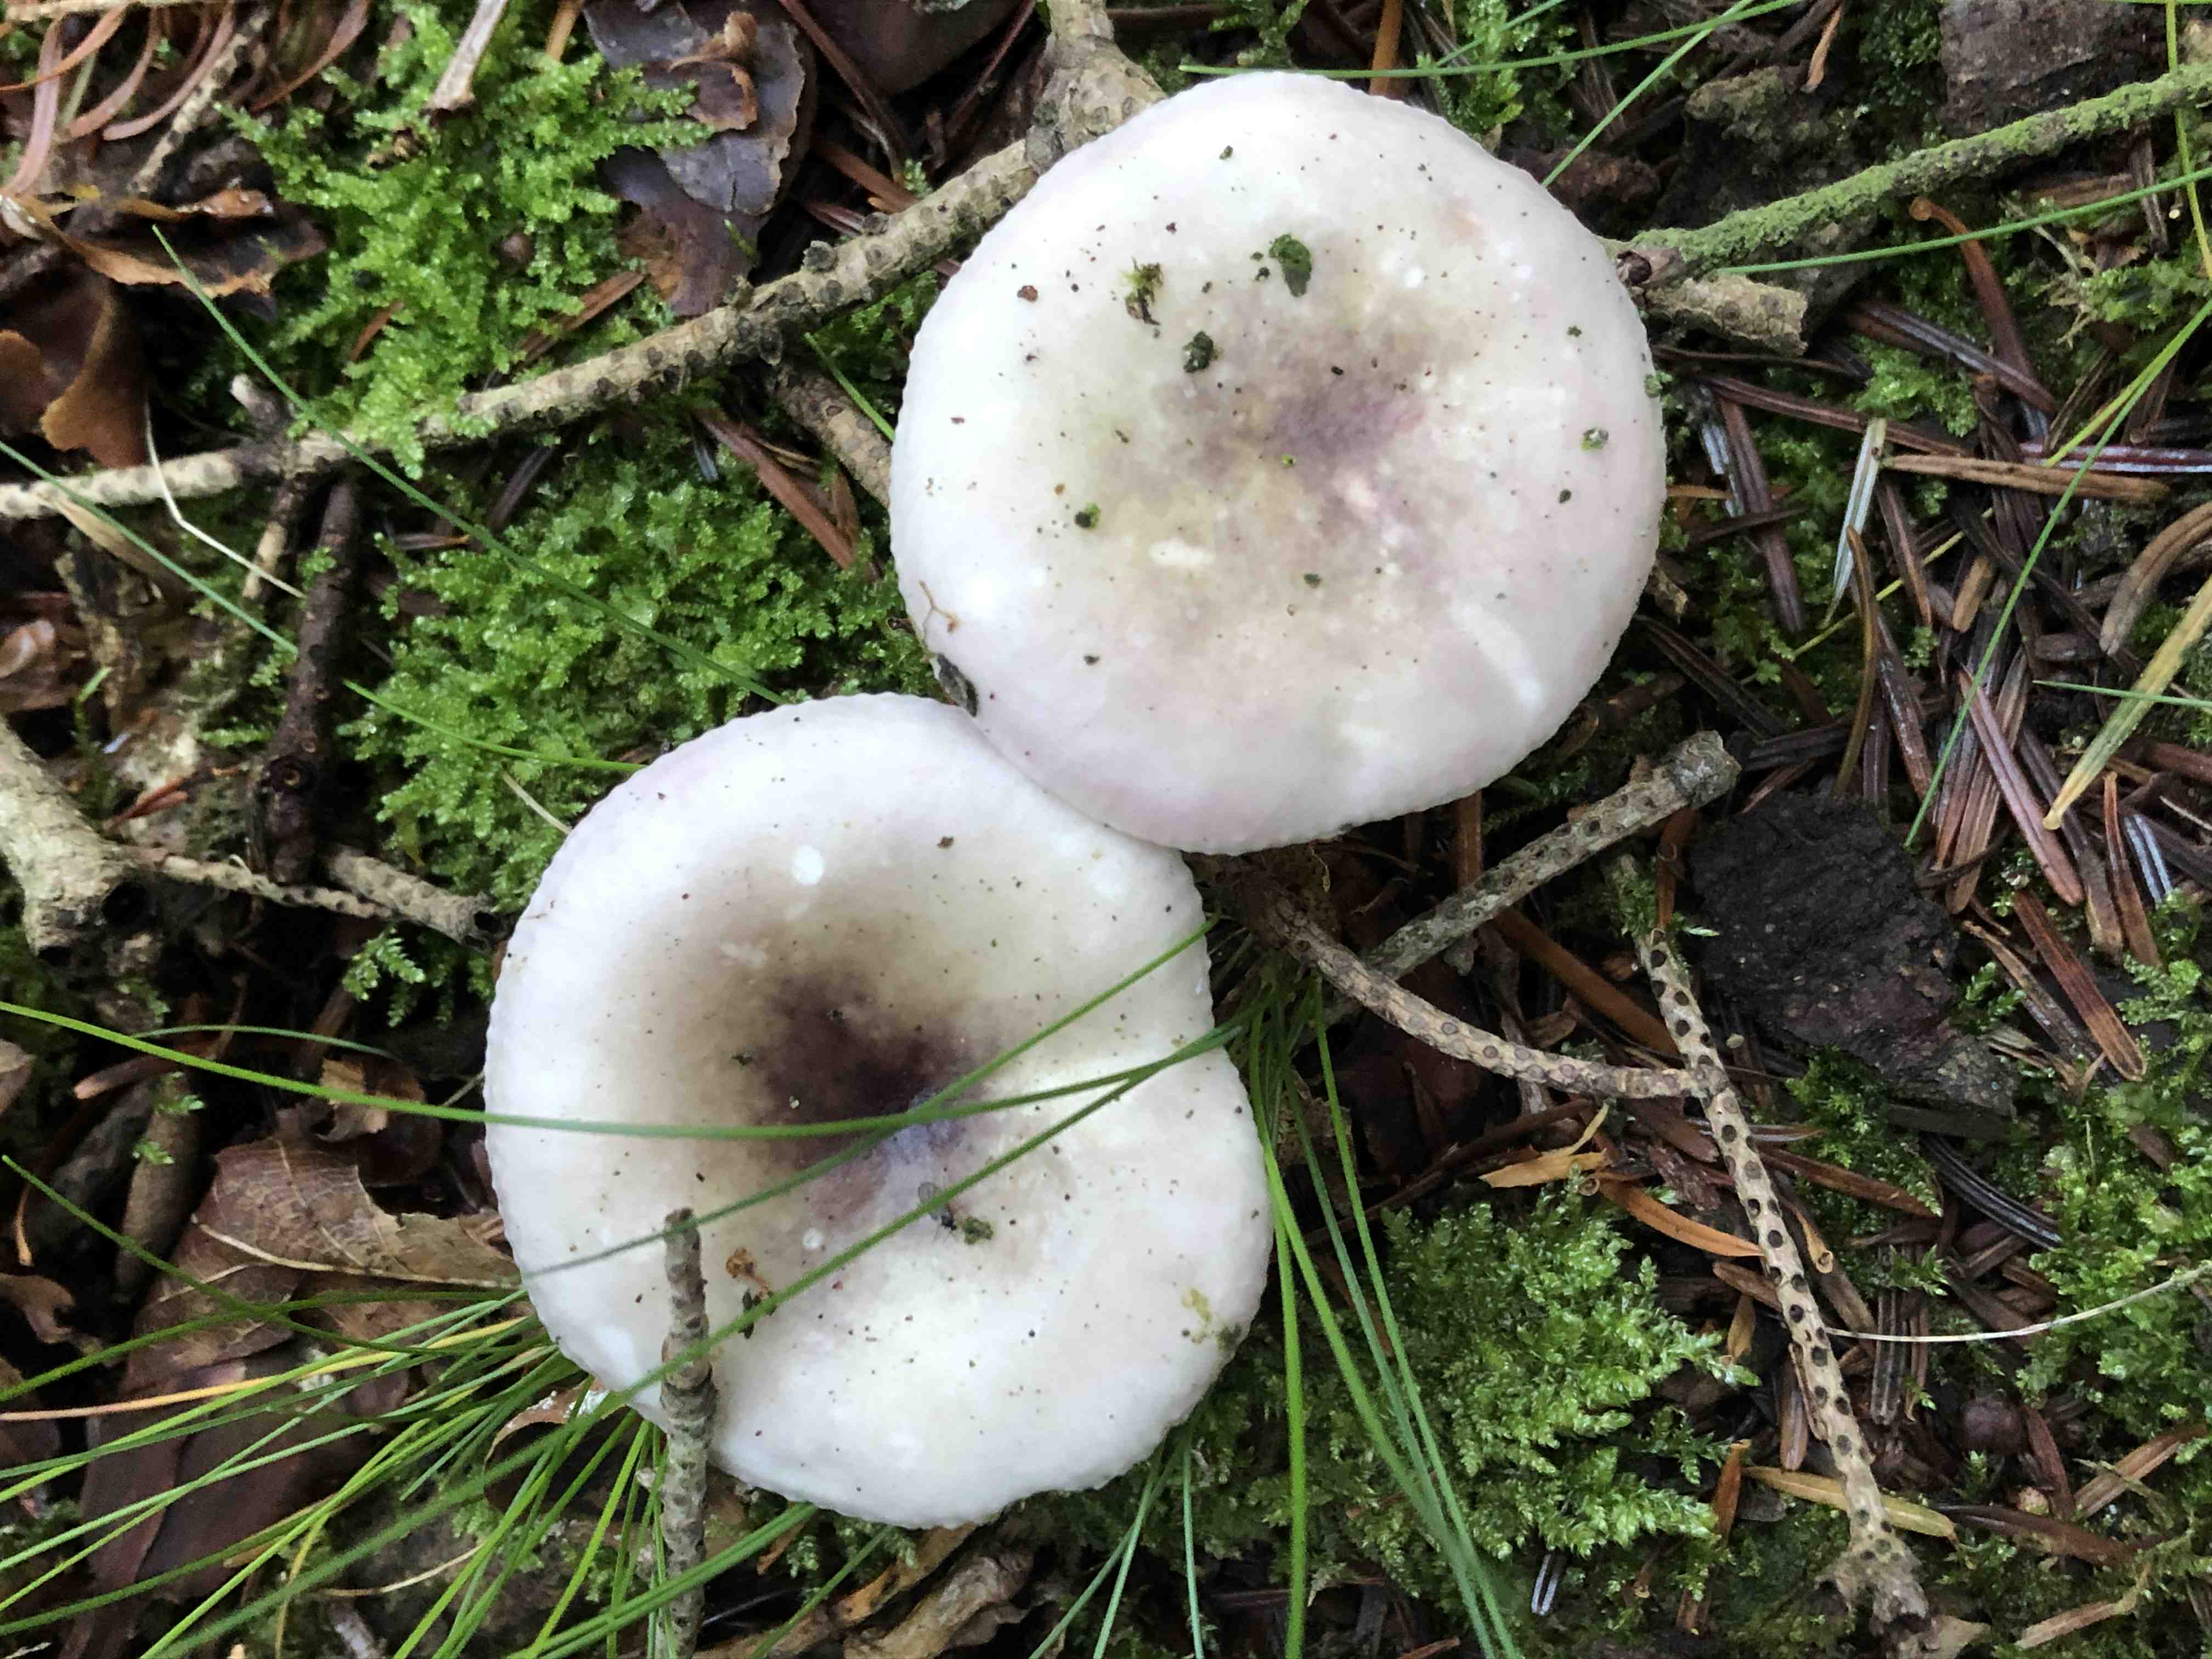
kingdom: Fungi
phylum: Basidiomycota
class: Agaricomycetes
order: Russulales
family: Russulaceae
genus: Russula
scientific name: Russula fragilis
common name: savbladet skørhat
